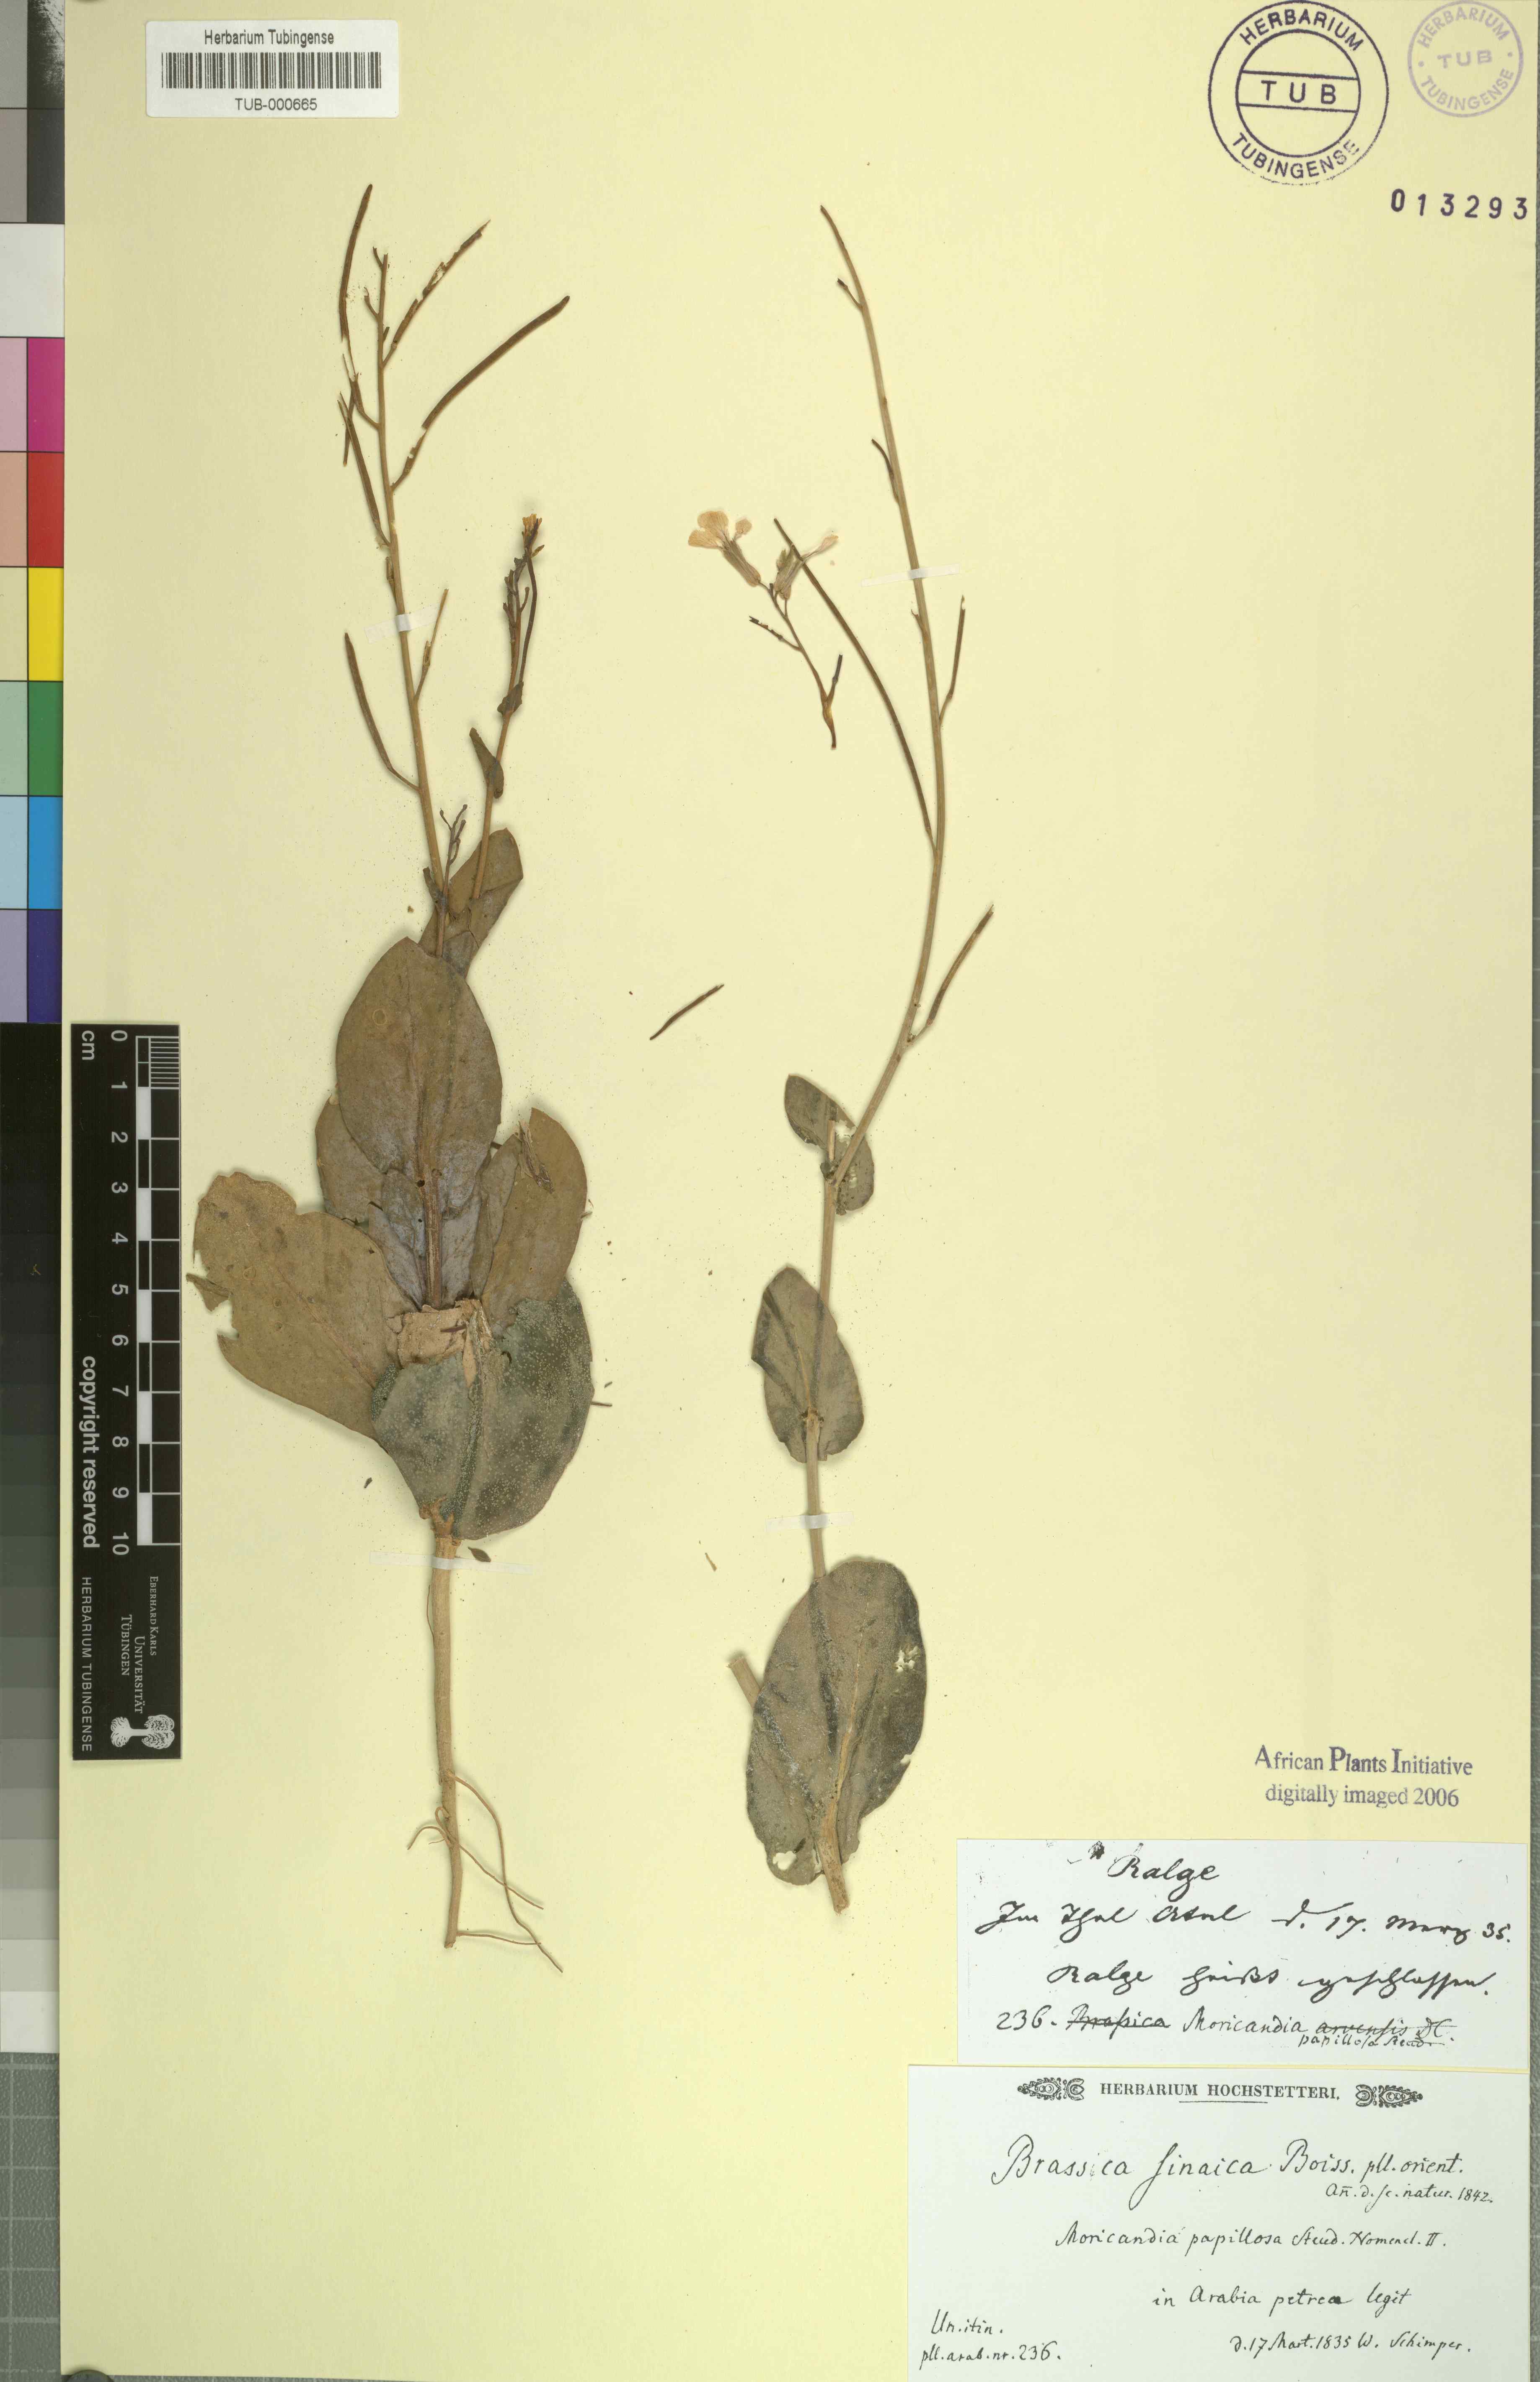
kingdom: Plantae
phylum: Tracheophyta
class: Magnoliopsida
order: Brassicales
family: Brassicaceae
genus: Moricandia
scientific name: Moricandia sinaica
